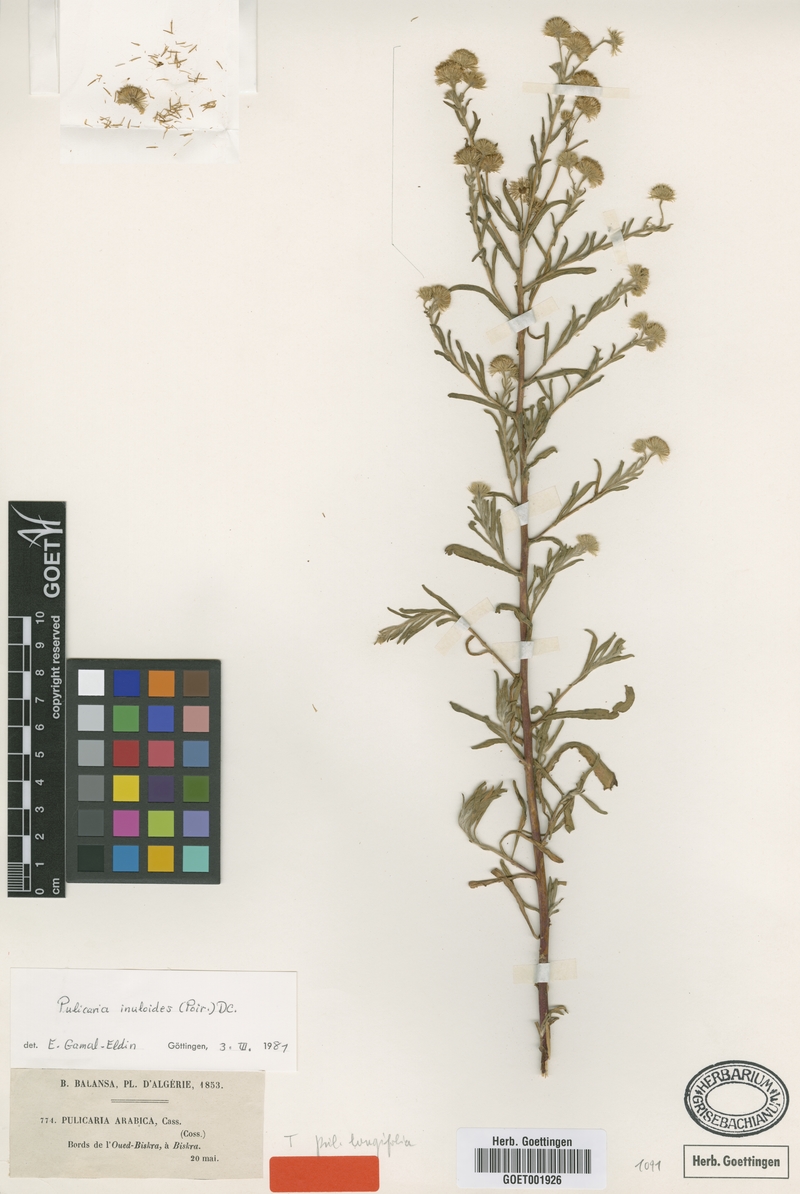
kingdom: Plantae
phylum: Tracheophyta
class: Magnoliopsida
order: Asterales
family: Asteraceae
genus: Pulicaria
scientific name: Pulicaria inuloides
